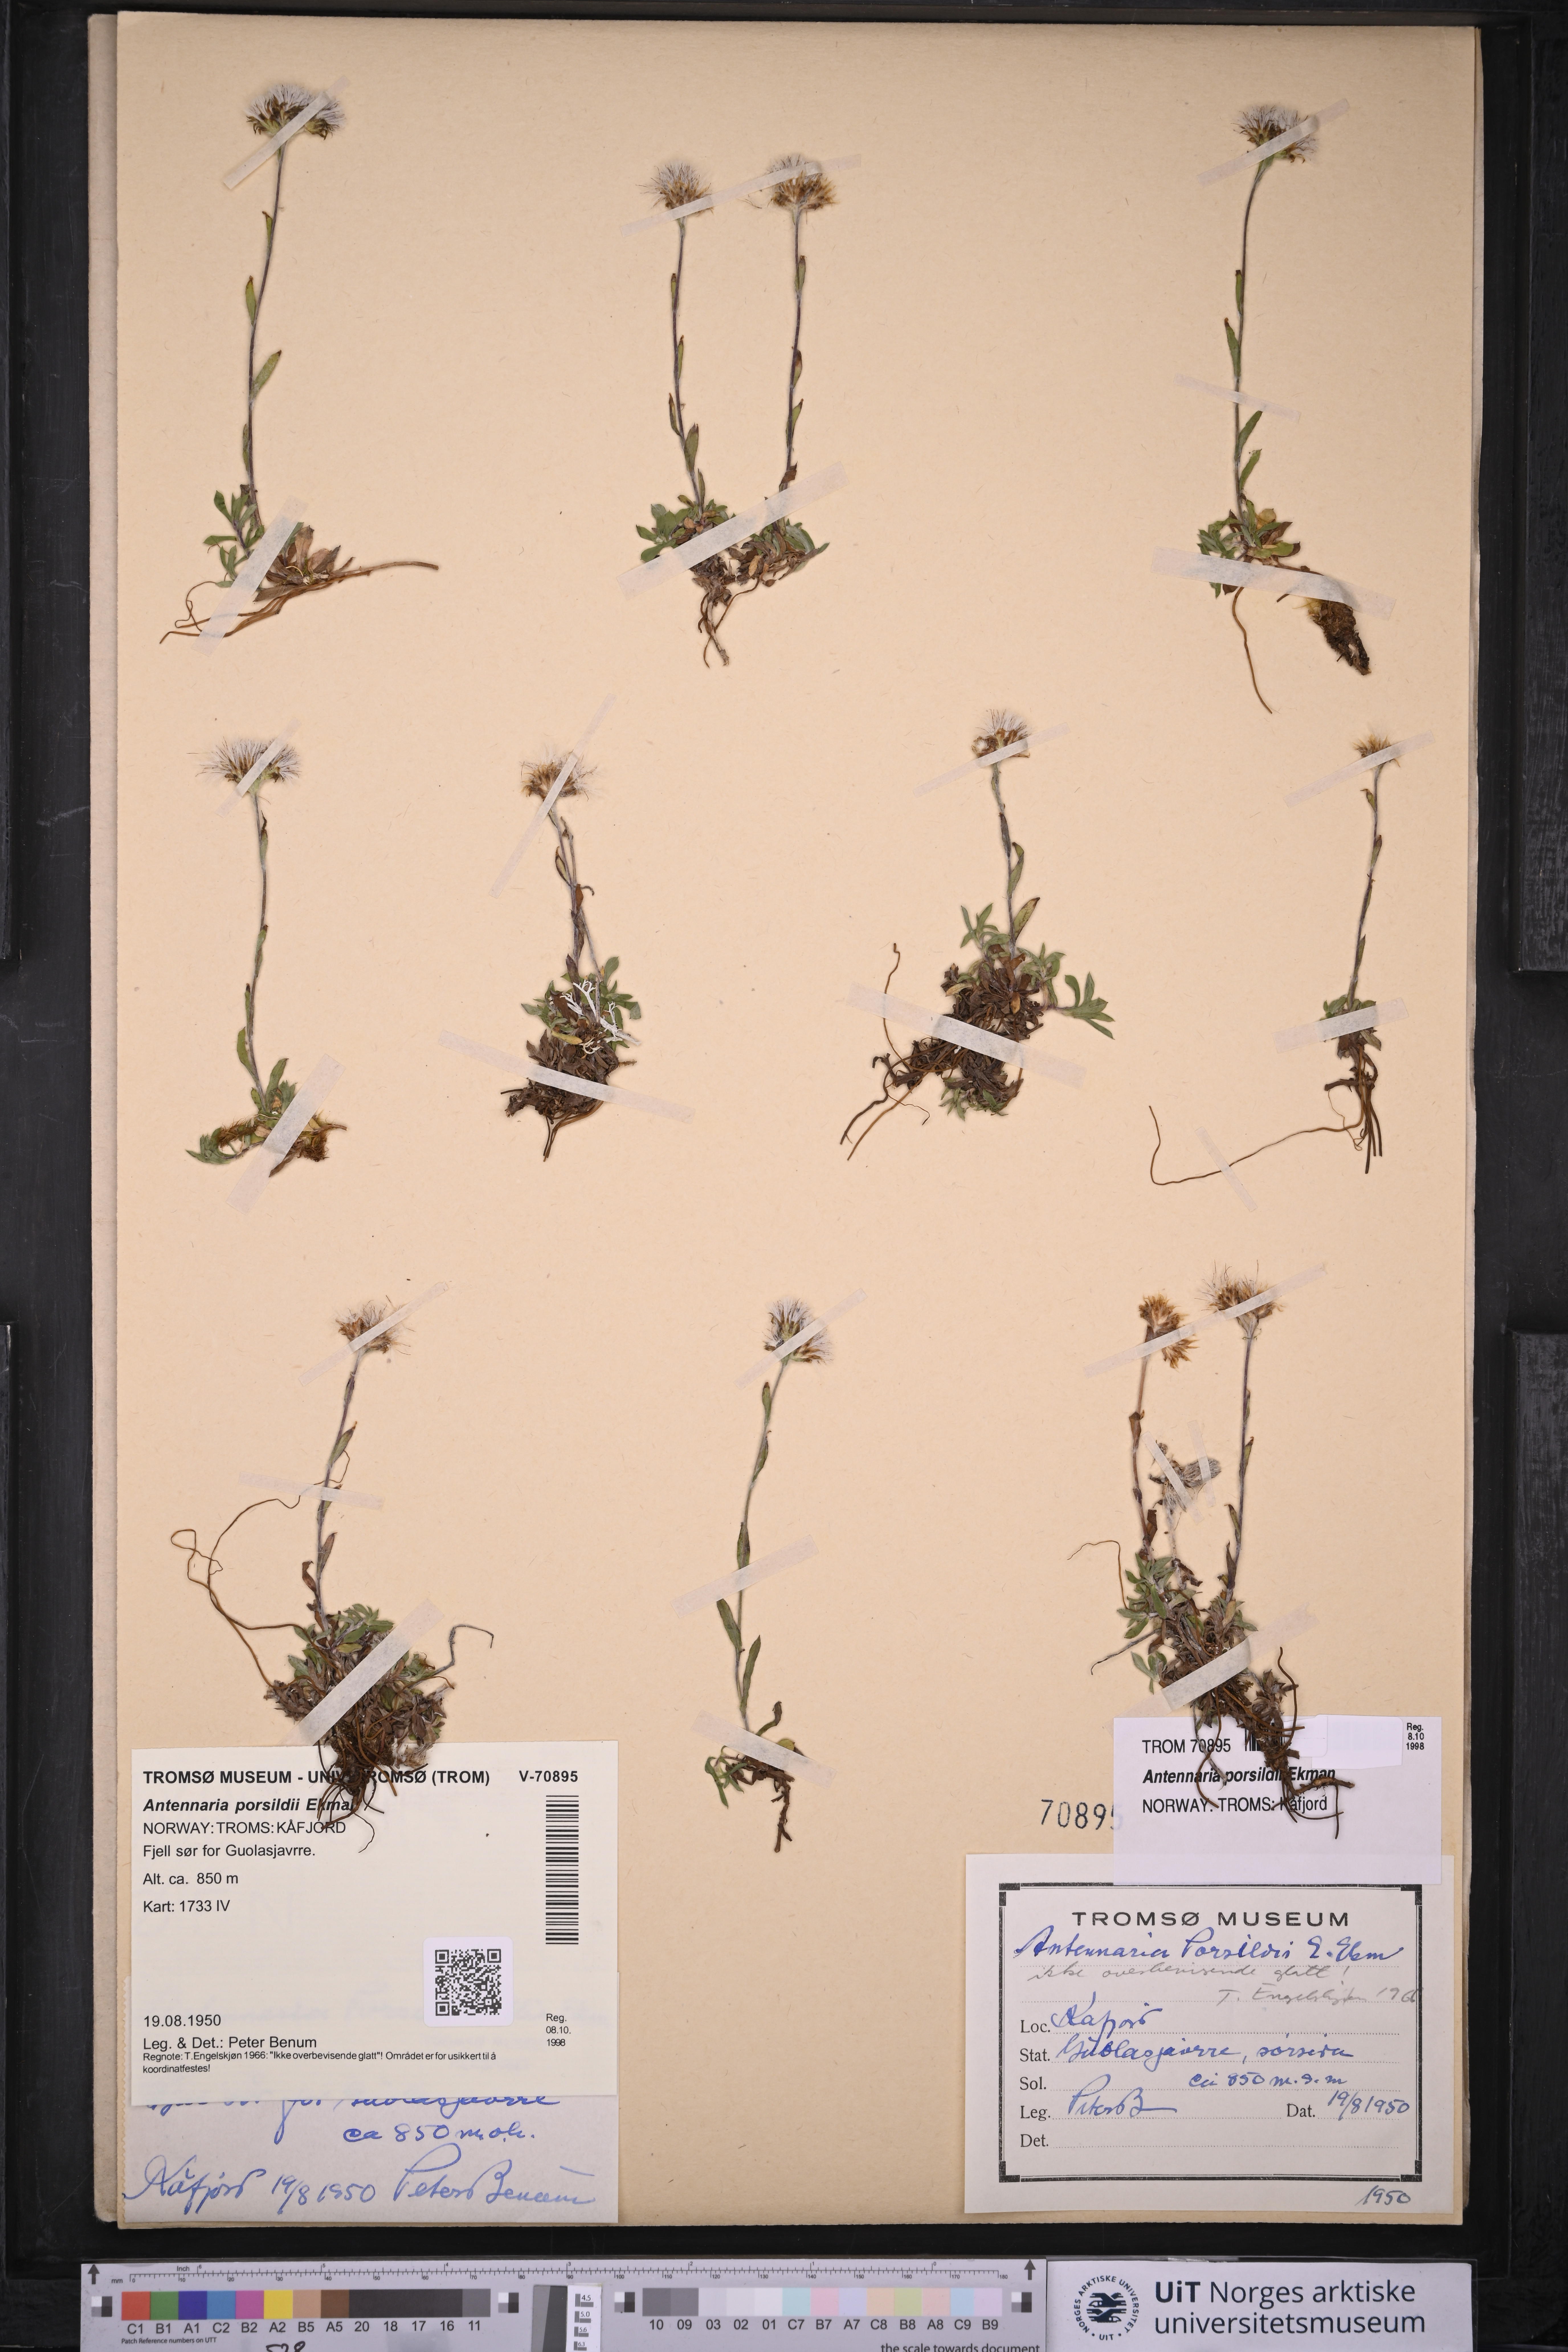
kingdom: Plantae
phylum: Tracheophyta
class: Magnoliopsida
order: Asterales
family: Asteraceae
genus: Antennaria
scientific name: Antennaria porsildii
